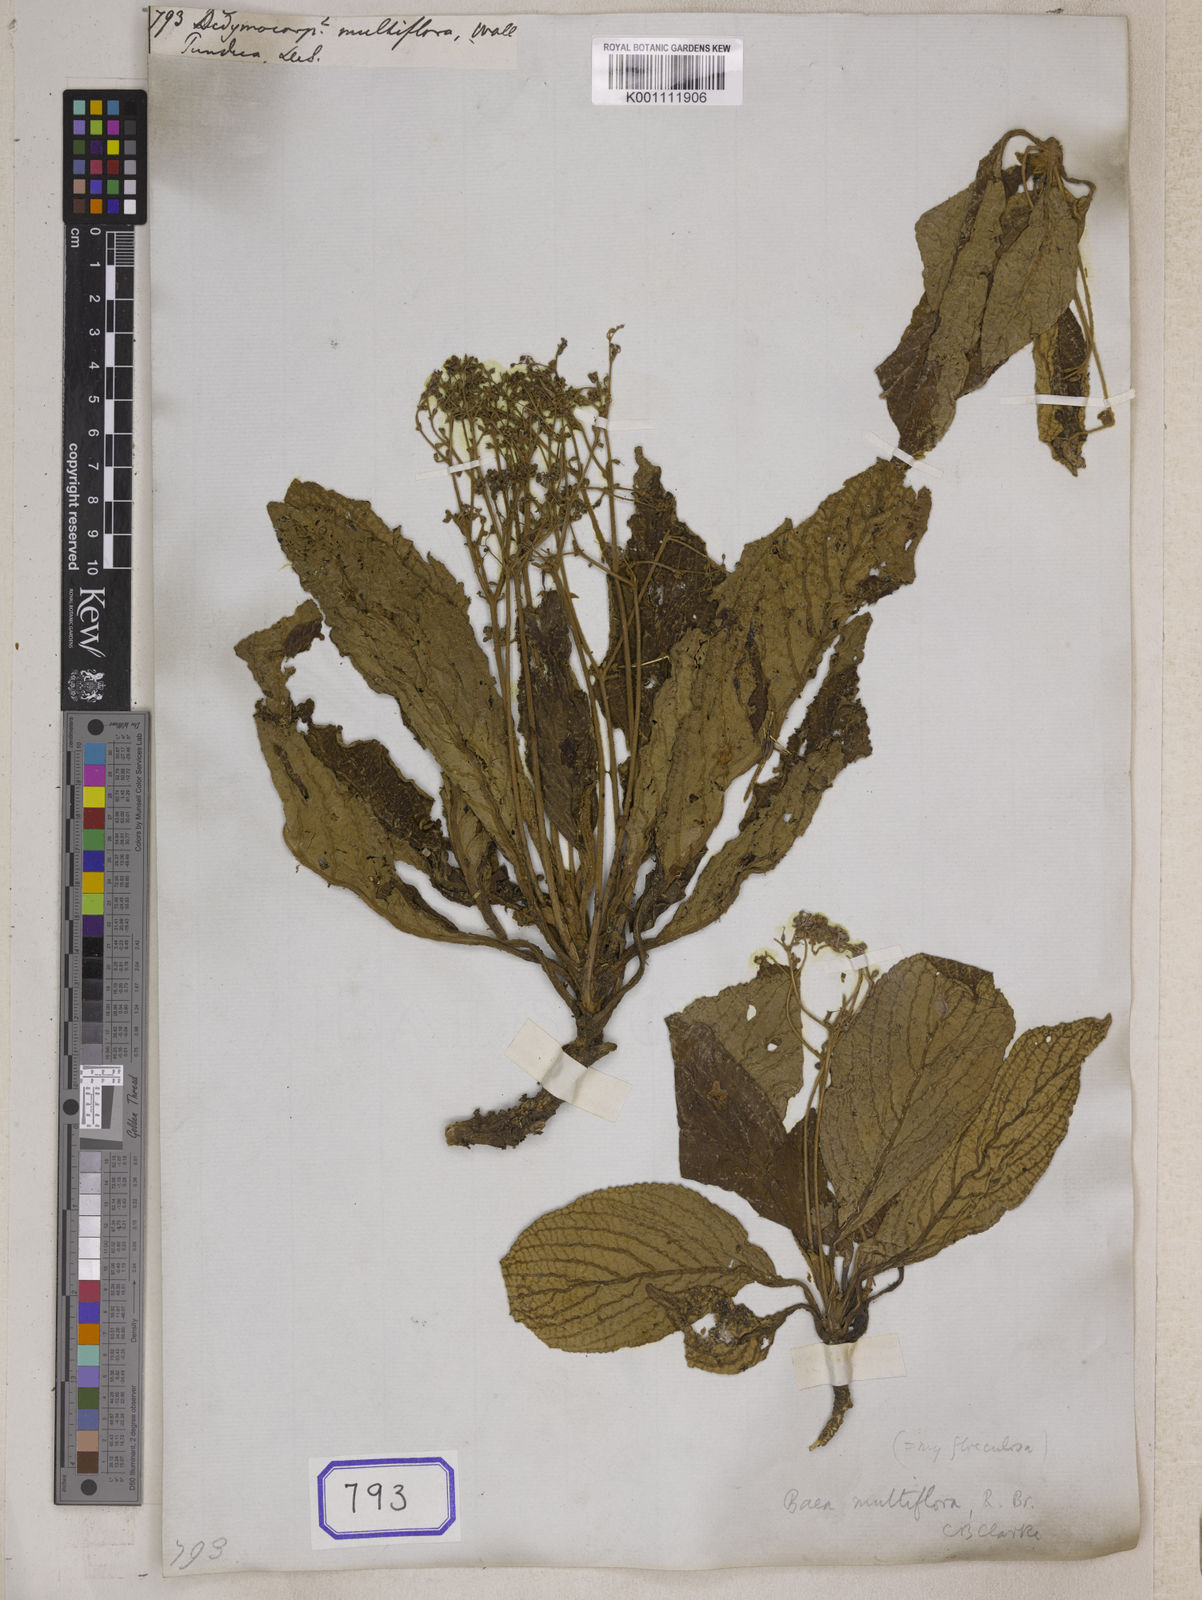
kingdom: Plantae
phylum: Tracheophyta
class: Magnoliopsida
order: Lamiales
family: Gesneriaceae
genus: Middletonia
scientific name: Middletonia multiflora
